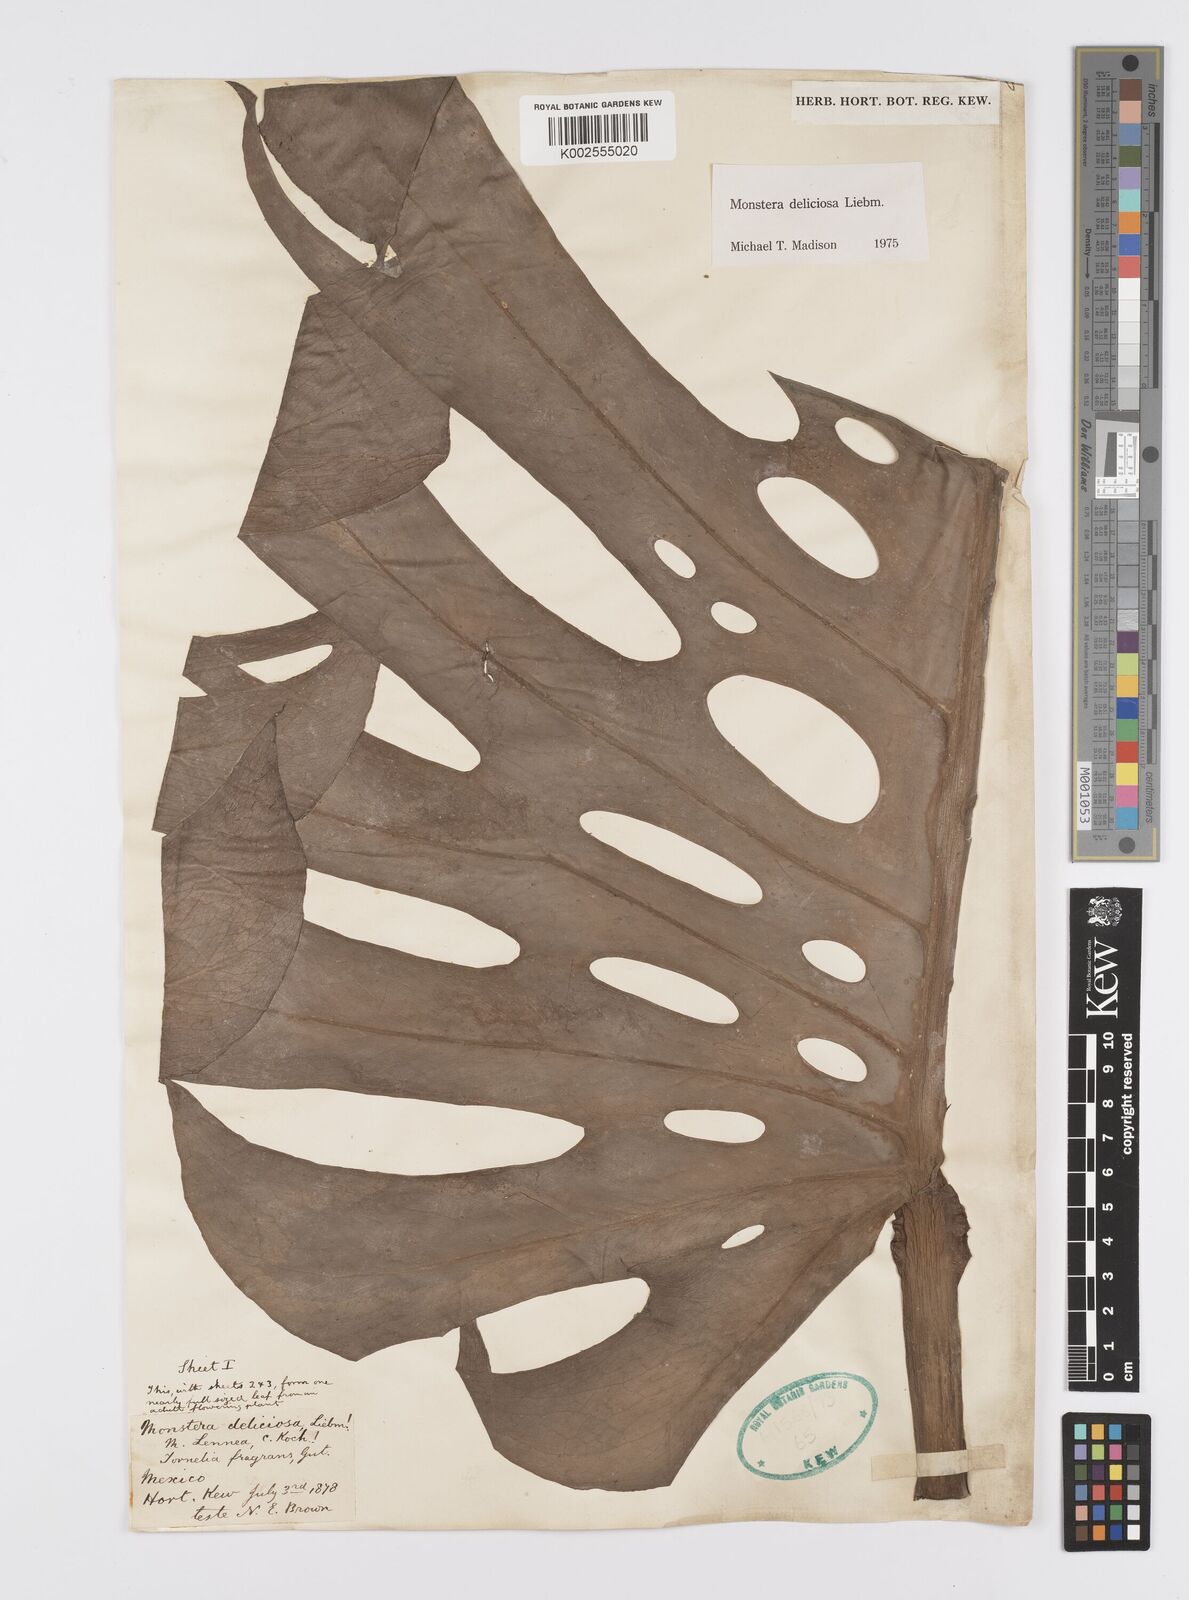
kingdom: Plantae
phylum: Tracheophyta
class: Liliopsida
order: Alismatales
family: Araceae
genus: Monstera
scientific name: Monstera deliciosa
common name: Cut-leaf-philodendron
